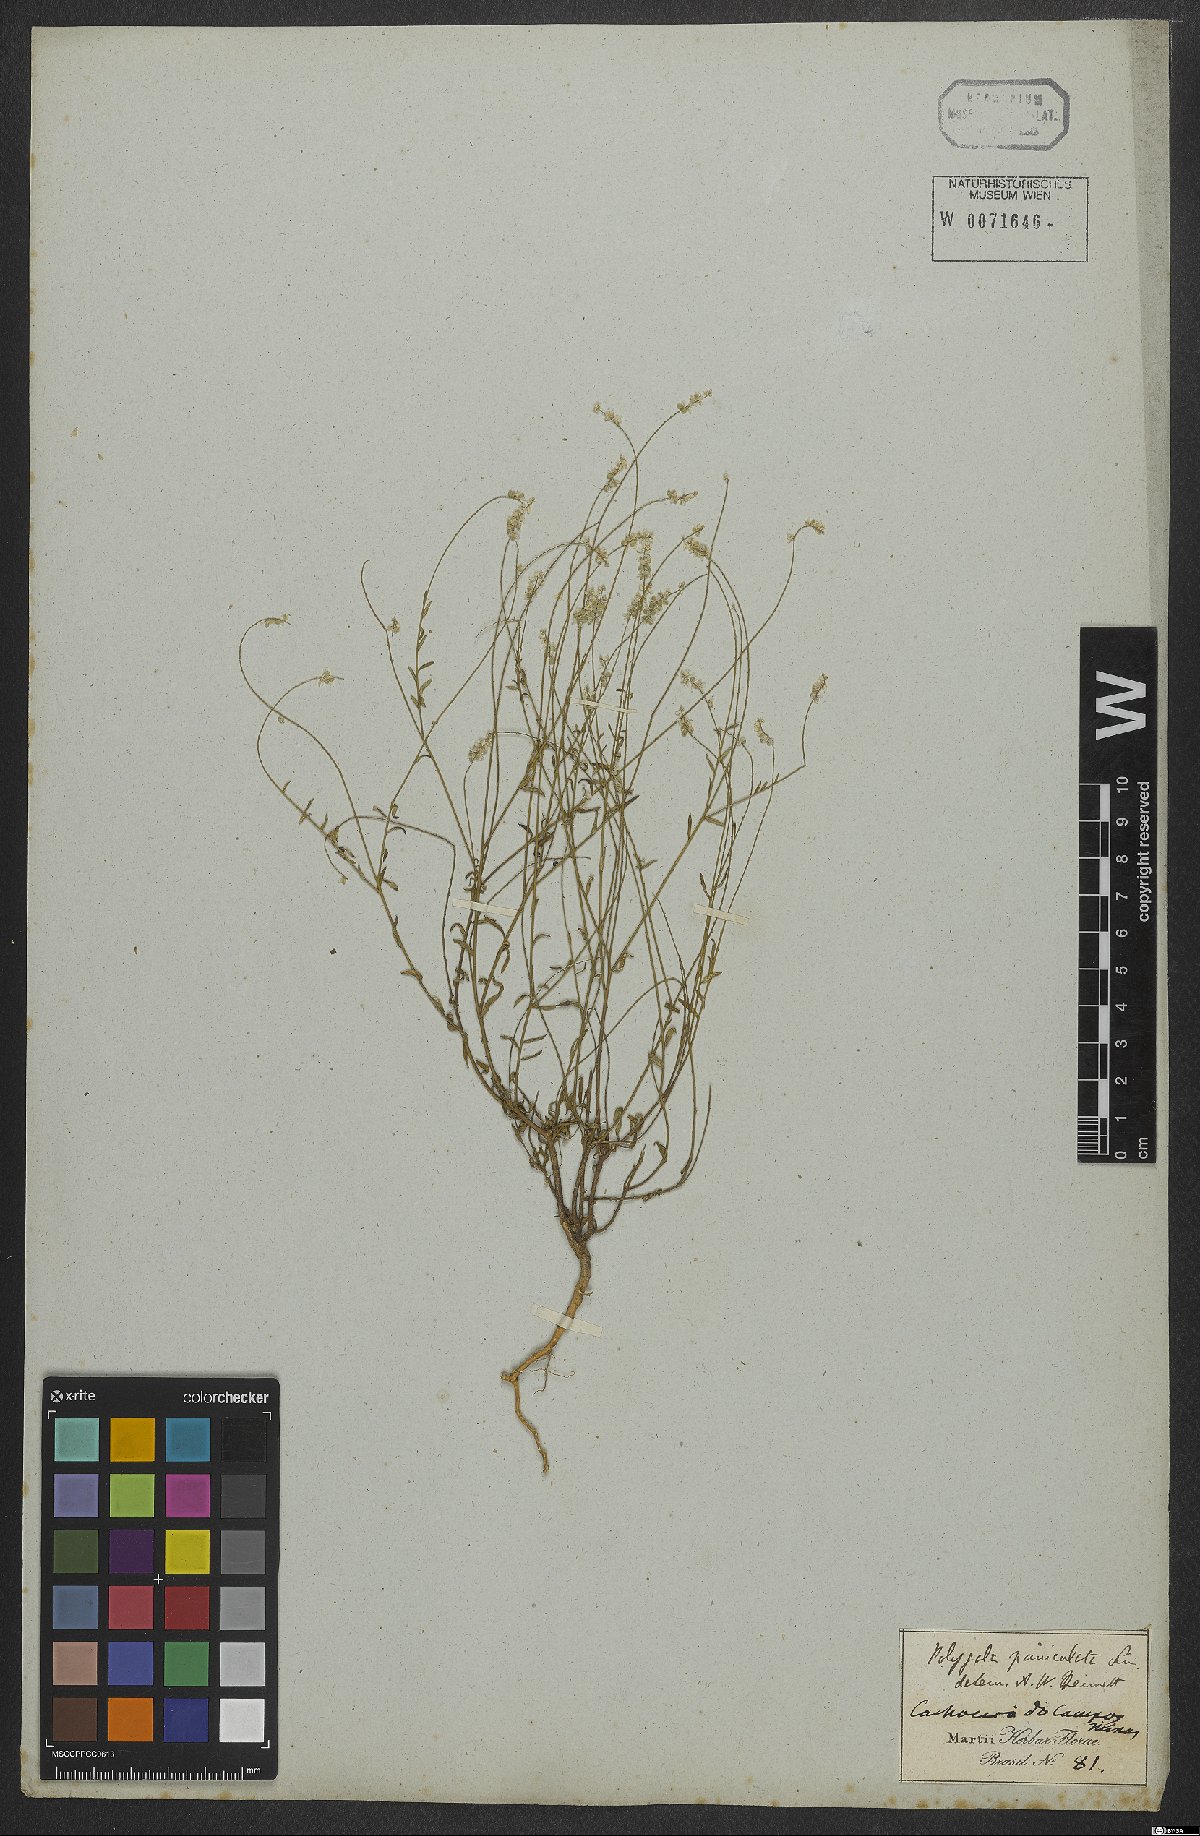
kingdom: Plantae
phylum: Tracheophyta
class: Magnoliopsida
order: Fabales
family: Polygalaceae
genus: Polygala
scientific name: Polygala exilis
